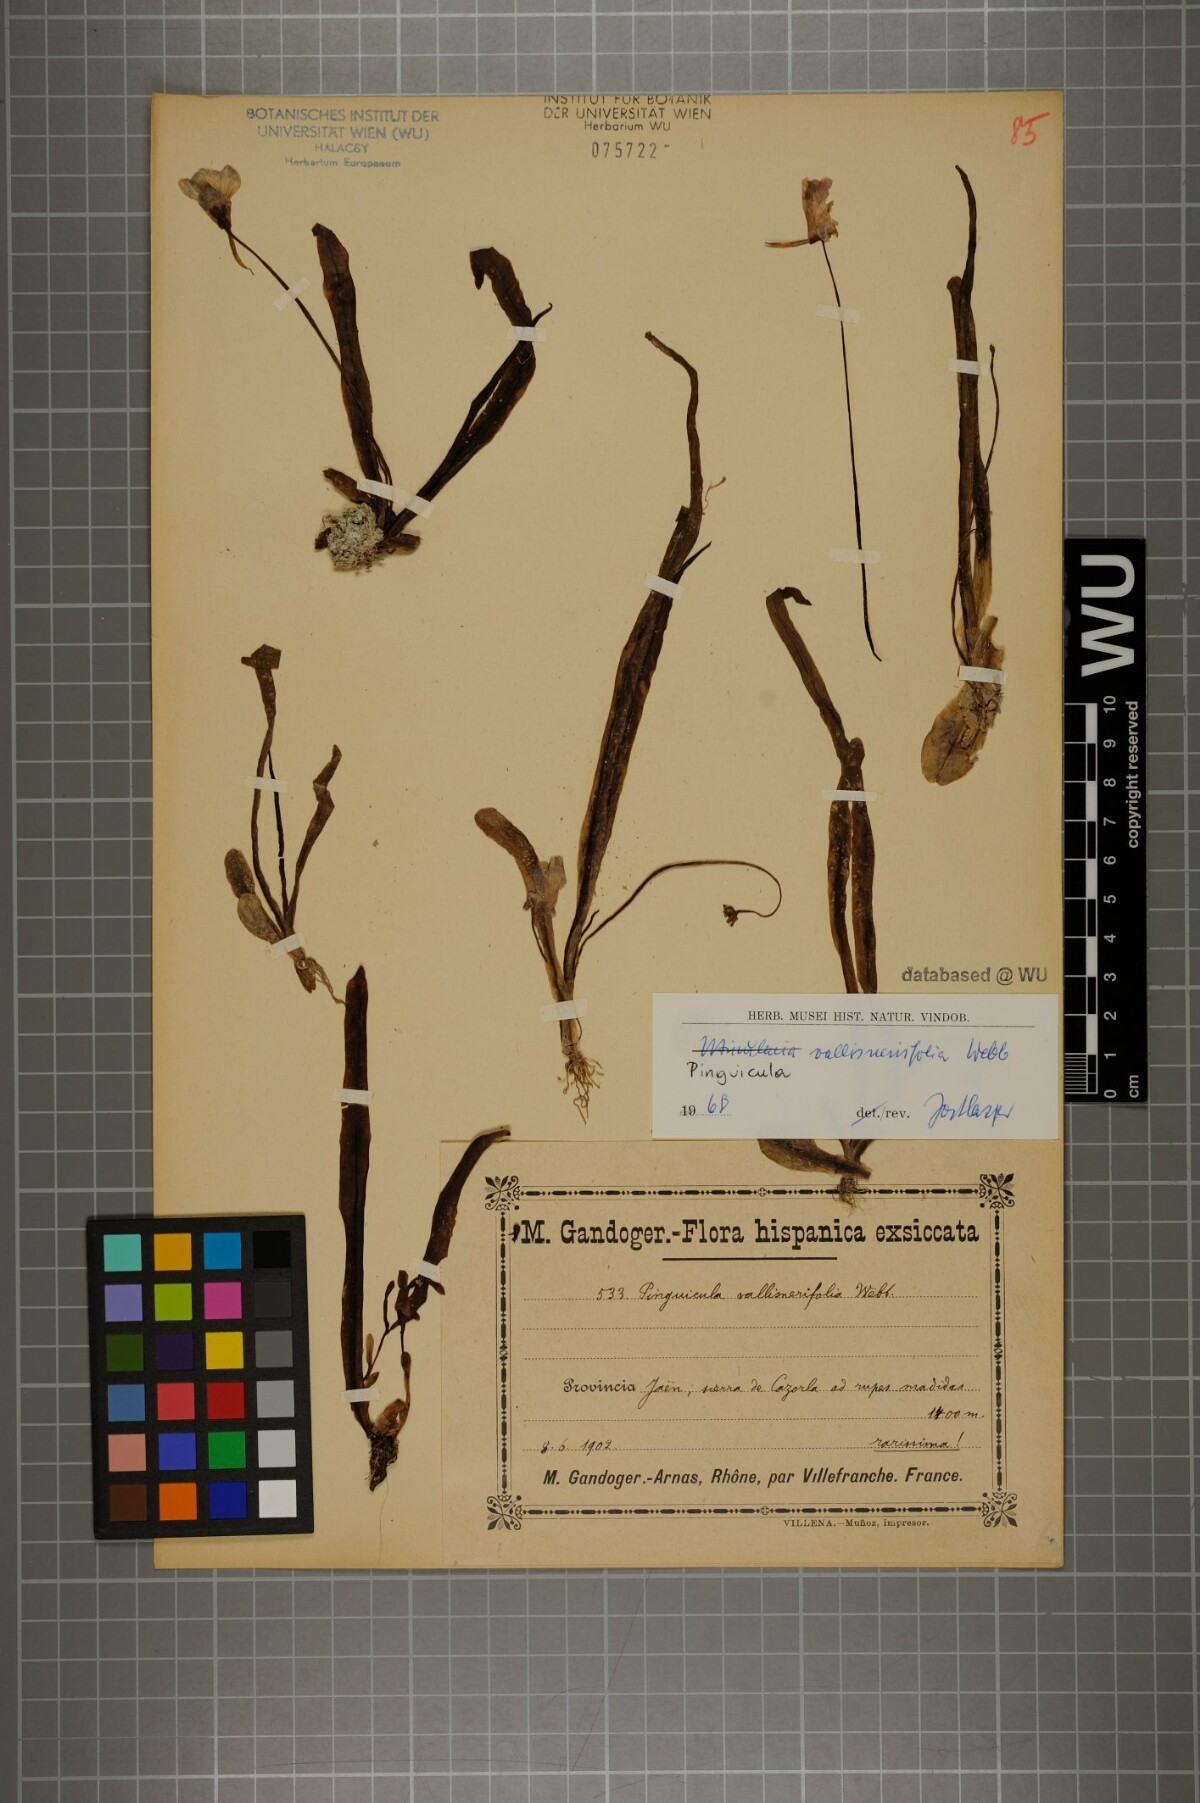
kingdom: Plantae
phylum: Tracheophyta
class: Magnoliopsida
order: Lamiales
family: Lentibulariaceae
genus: Pinguicula
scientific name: Pinguicula vallisneriifolia
